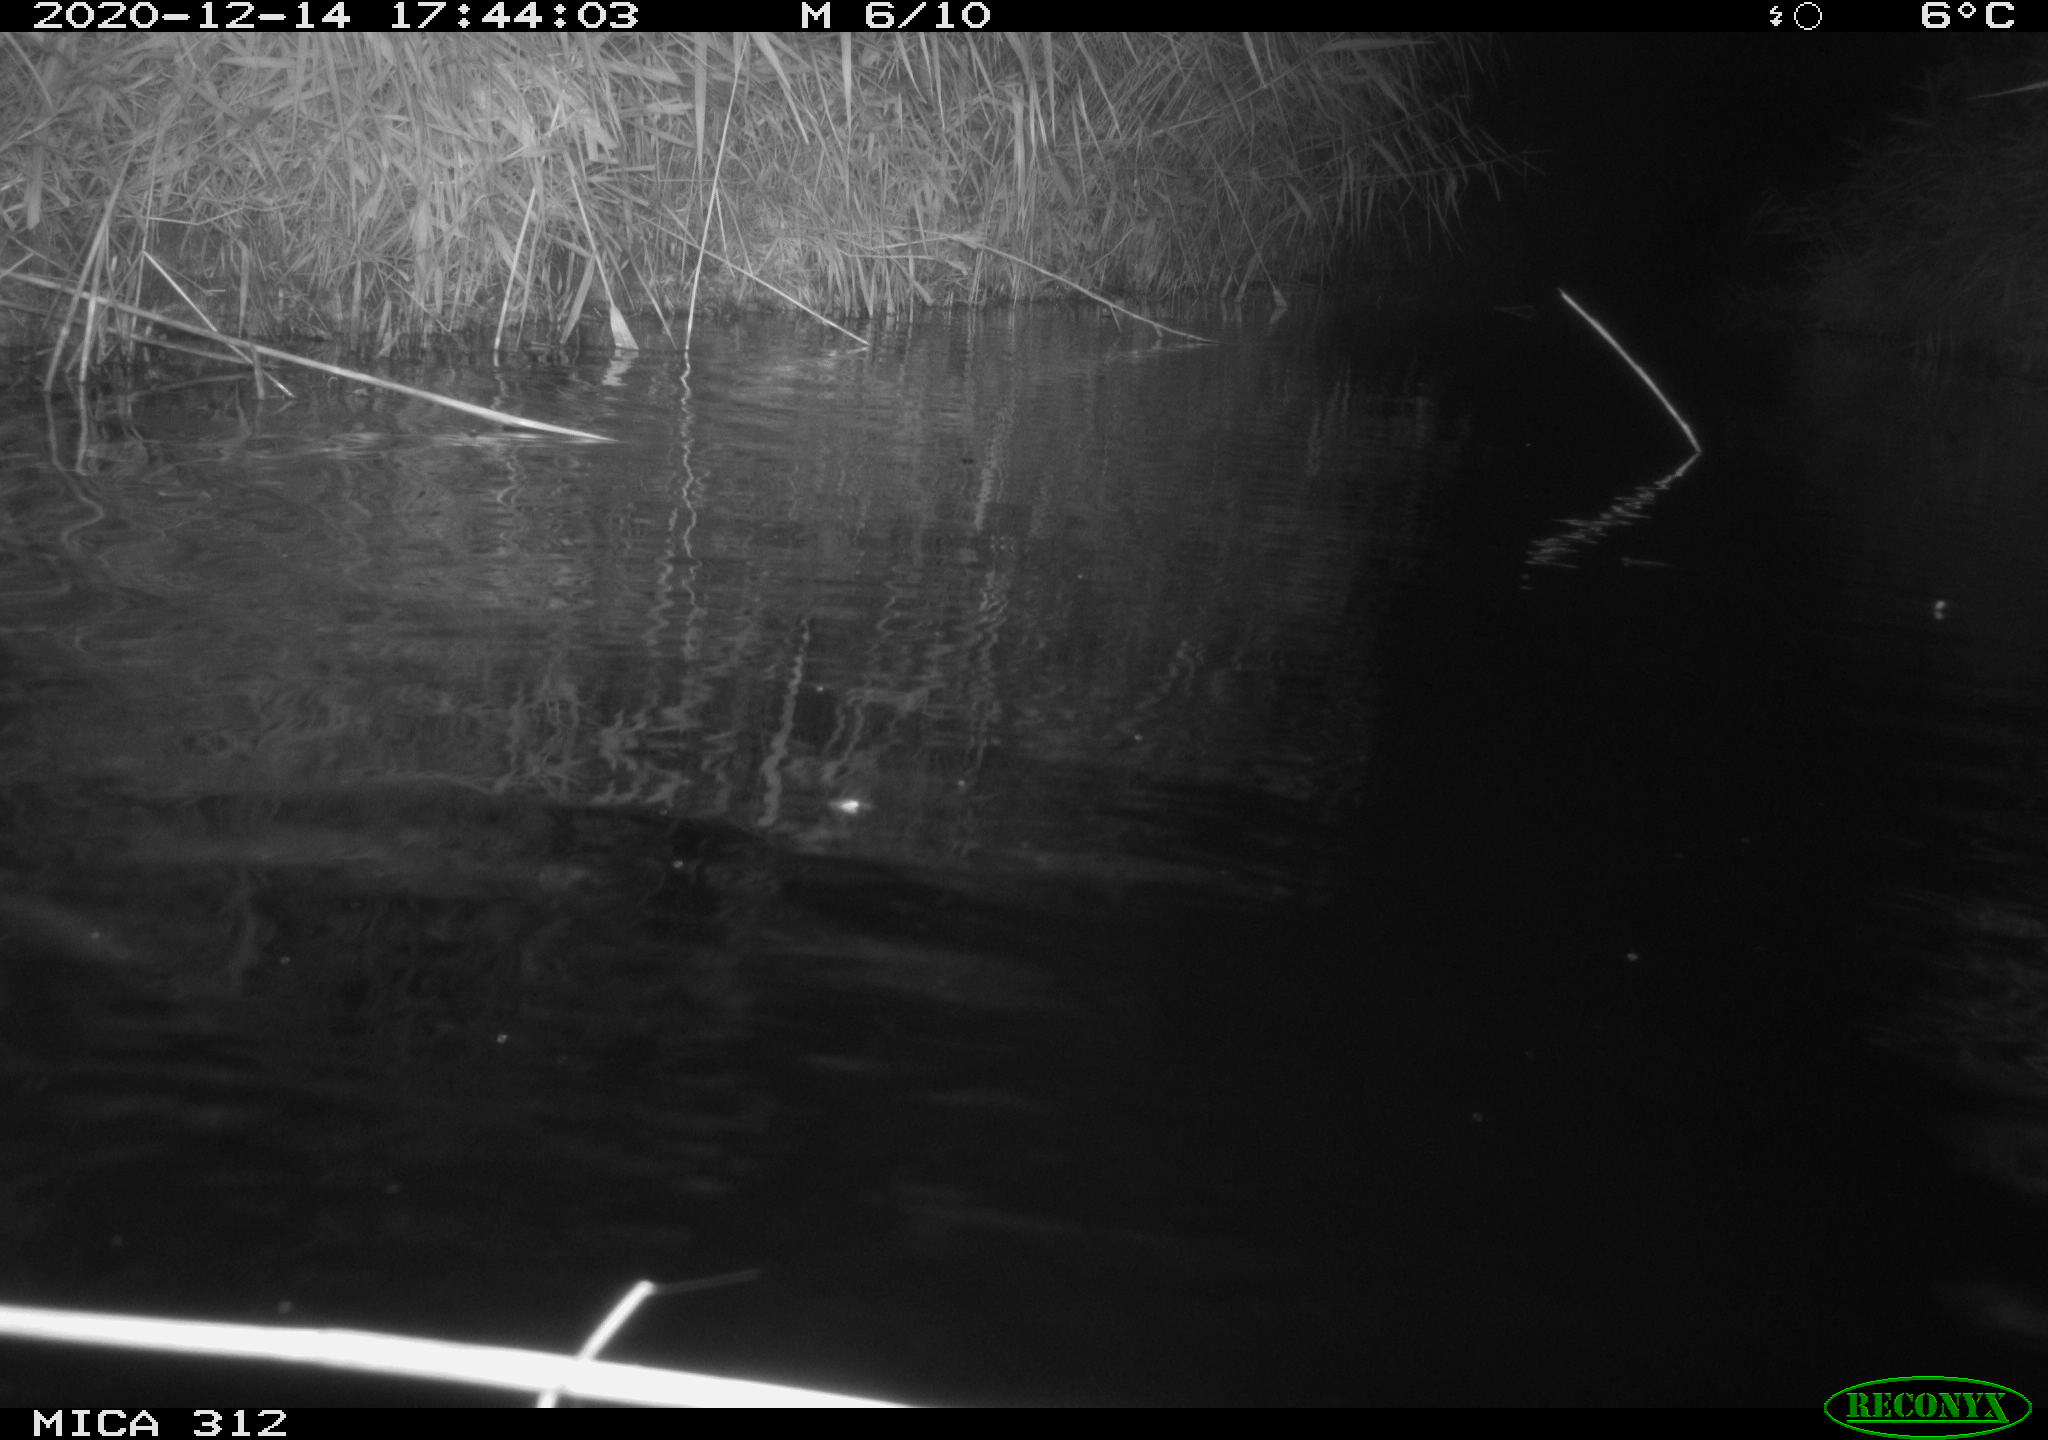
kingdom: Animalia
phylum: Chordata
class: Mammalia
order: Rodentia
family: Muridae
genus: Rattus
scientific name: Rattus norvegicus
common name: Brown rat
